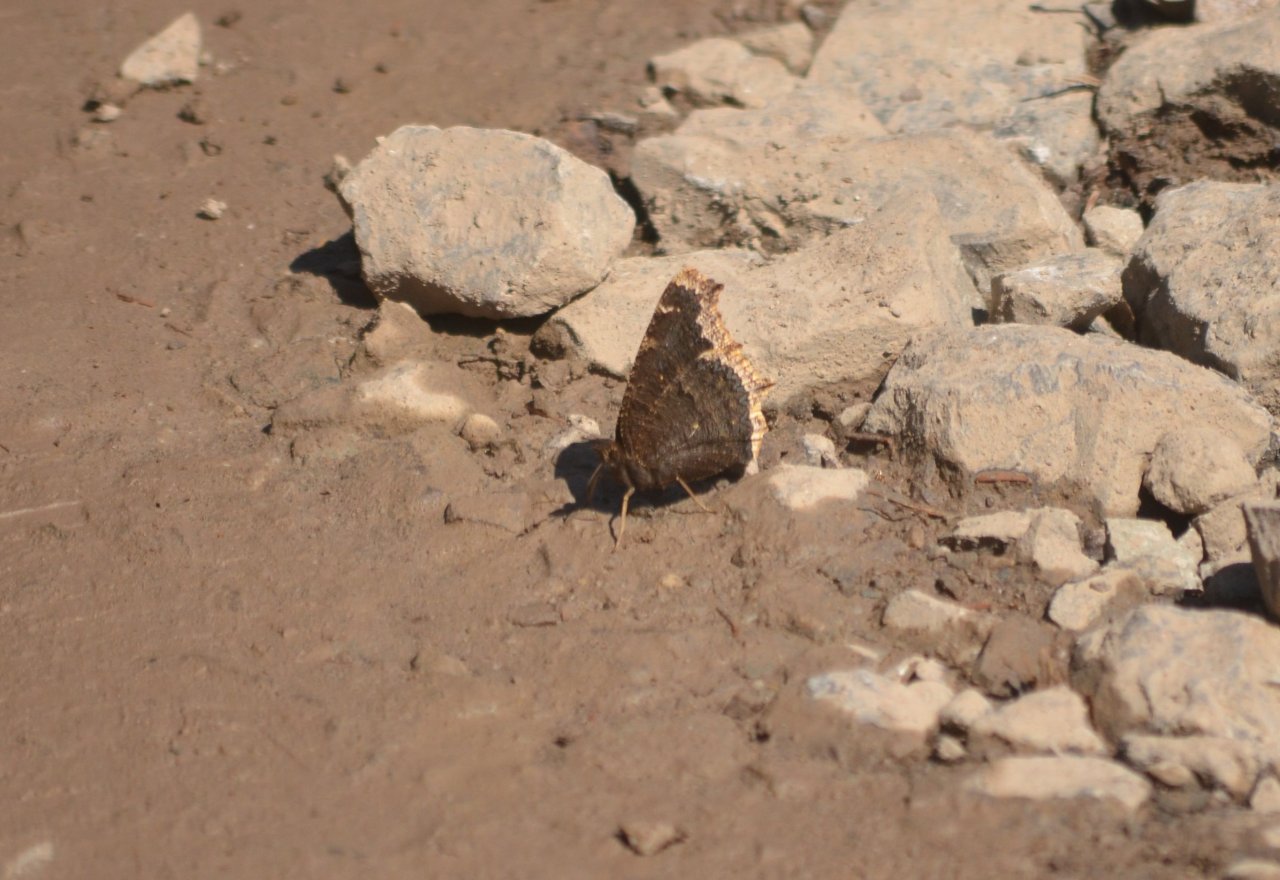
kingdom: Animalia
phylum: Arthropoda
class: Insecta
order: Lepidoptera
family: Nymphalidae
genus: Nymphalis
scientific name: Nymphalis antiopa
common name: Mourning Cloak
